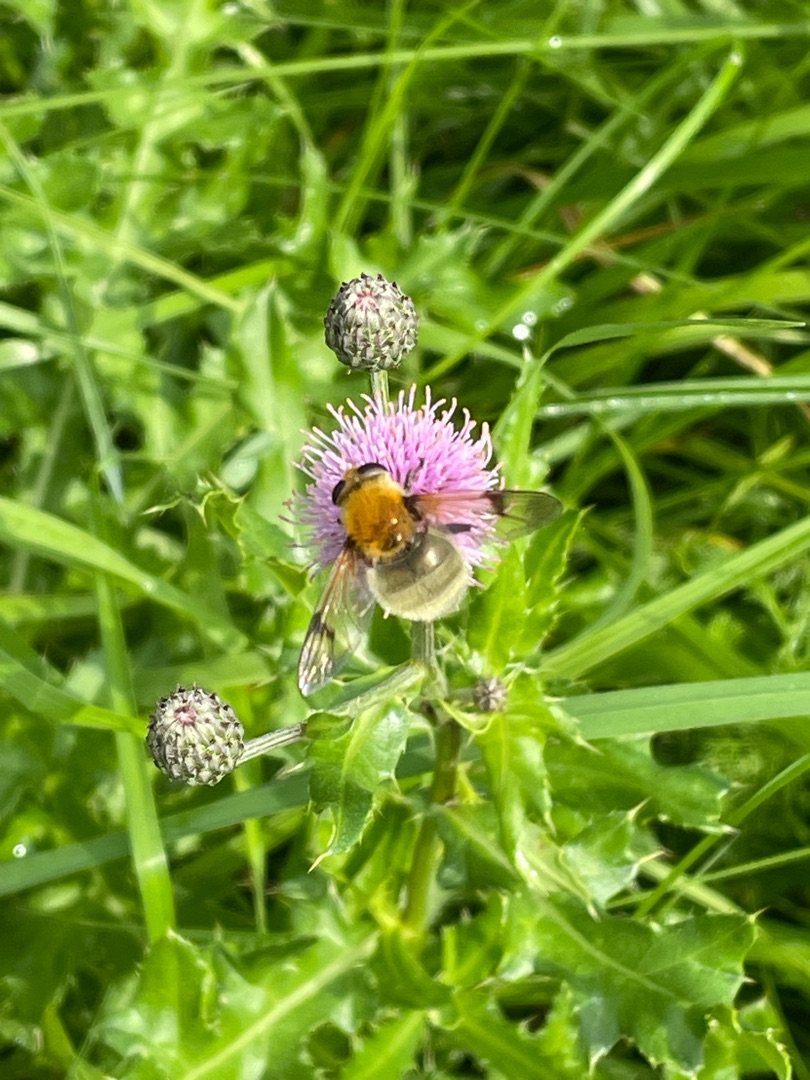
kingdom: Animalia
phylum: Arthropoda
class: Insecta
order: Diptera
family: Syrphidae
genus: Sericomyia
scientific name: Sericomyia superbiens
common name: Brun bjørnesvirreflue
